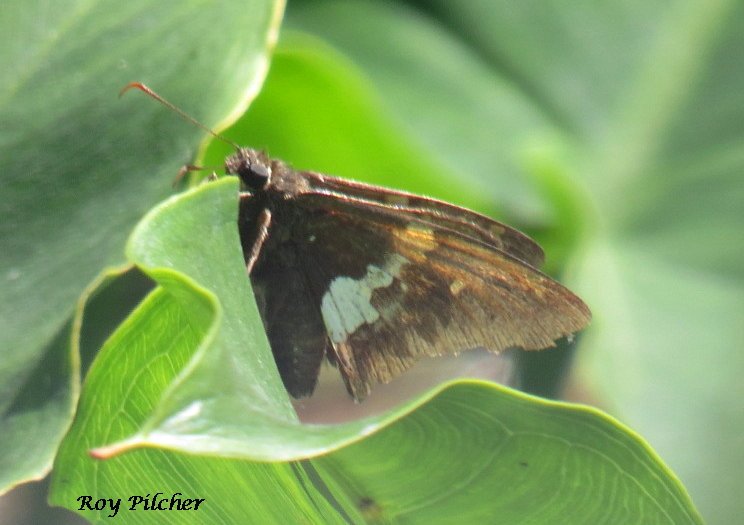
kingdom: Animalia
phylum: Arthropoda
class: Insecta
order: Lepidoptera
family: Hesperiidae
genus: Epargyreus
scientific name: Epargyreus clarus
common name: Silver-spotted Skipper
